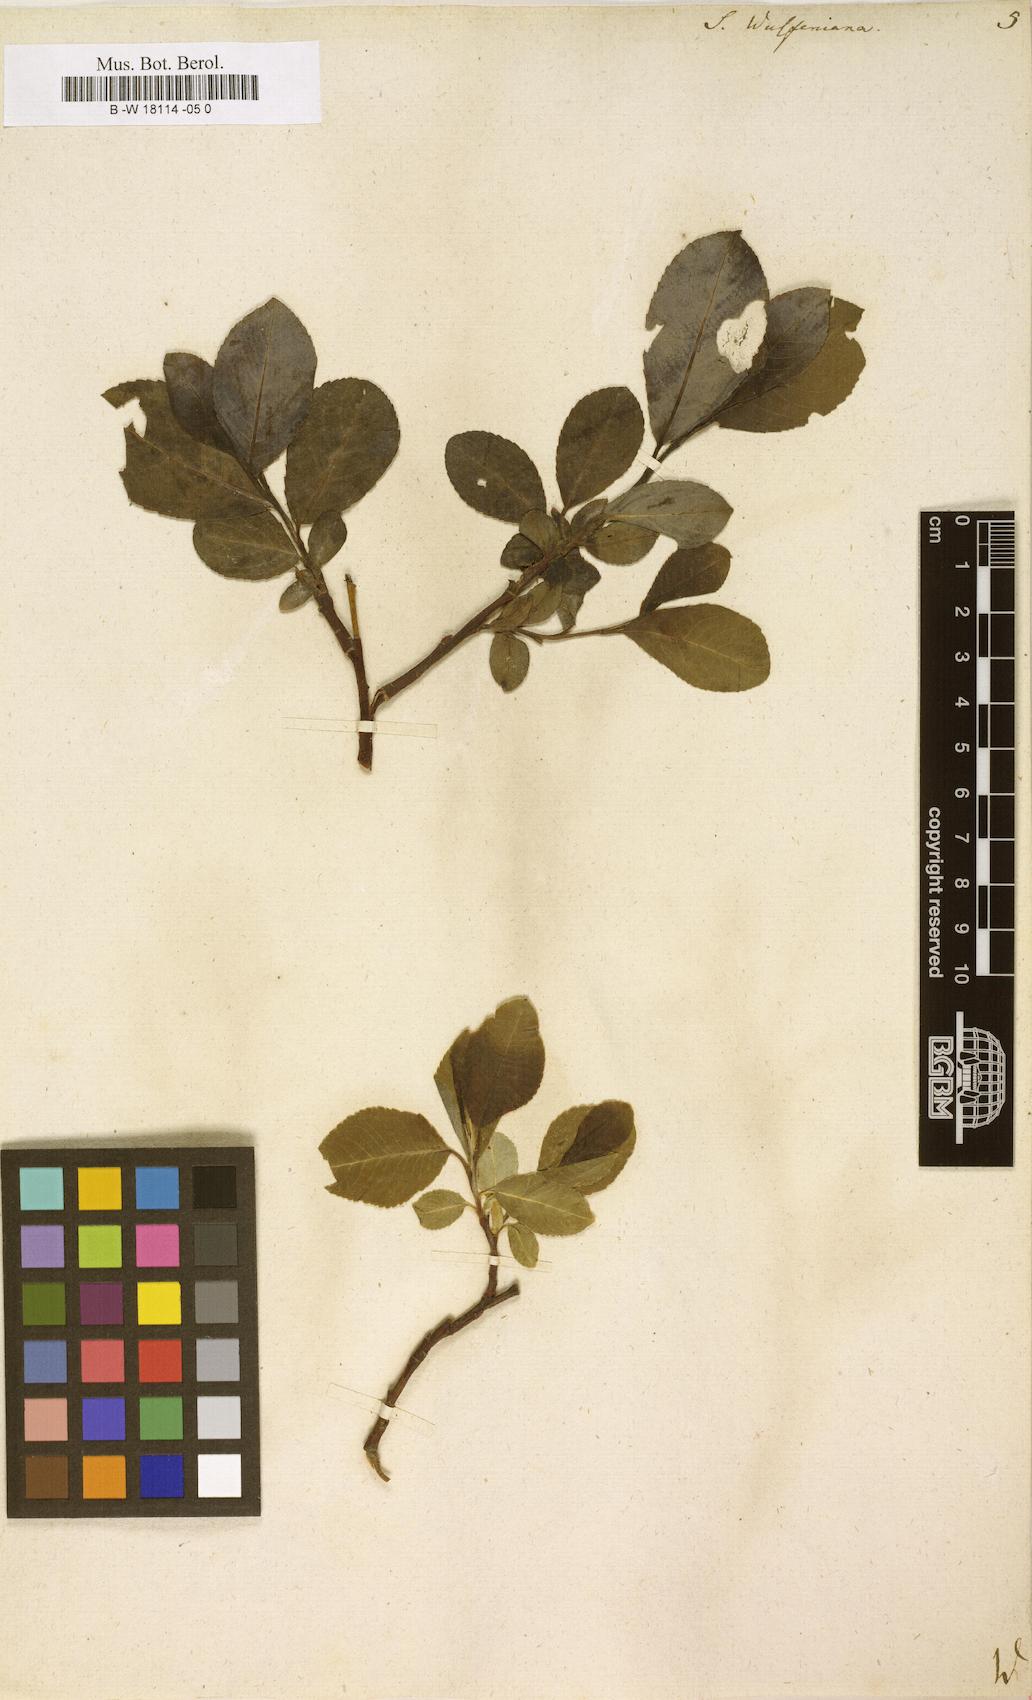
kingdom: Plantae
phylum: Tracheophyta
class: Magnoliopsida
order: Malpighiales
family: Salicaceae
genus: Salix
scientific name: Salix
